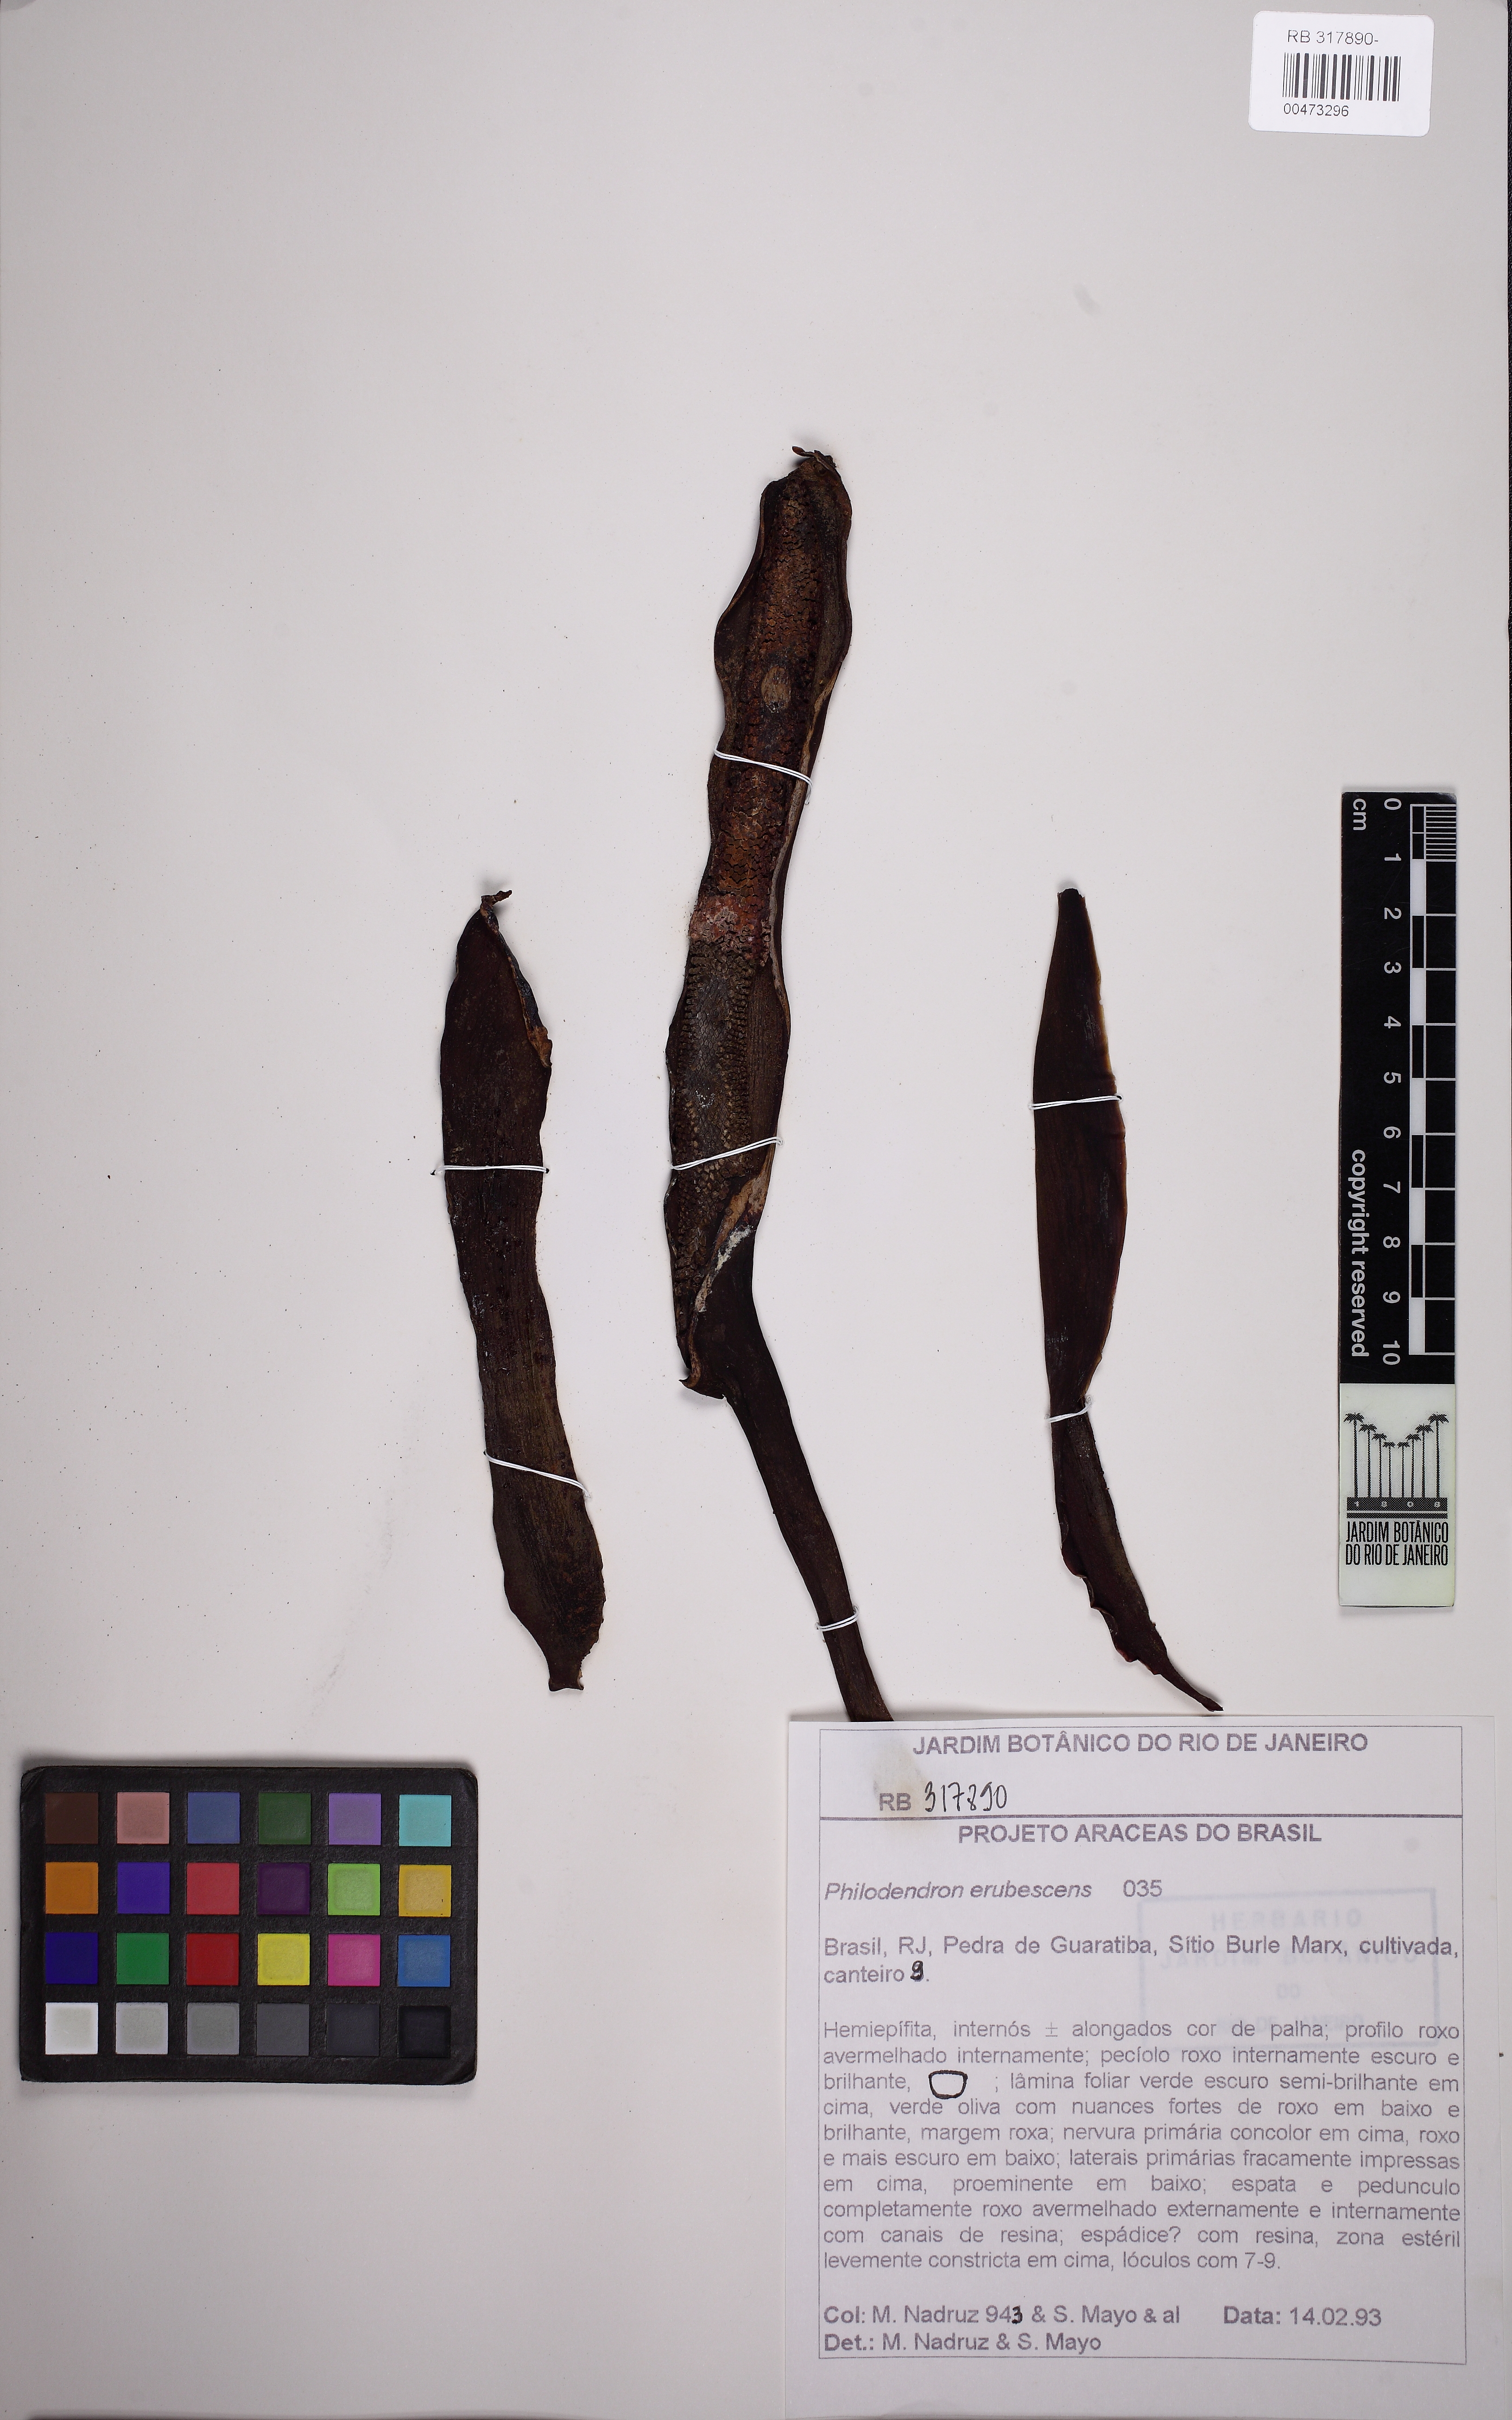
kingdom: Plantae
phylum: Tracheophyta
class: Liliopsida
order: Alismatales
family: Araceae
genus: Philodendron
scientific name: Philodendron erubescens
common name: Philodendron
